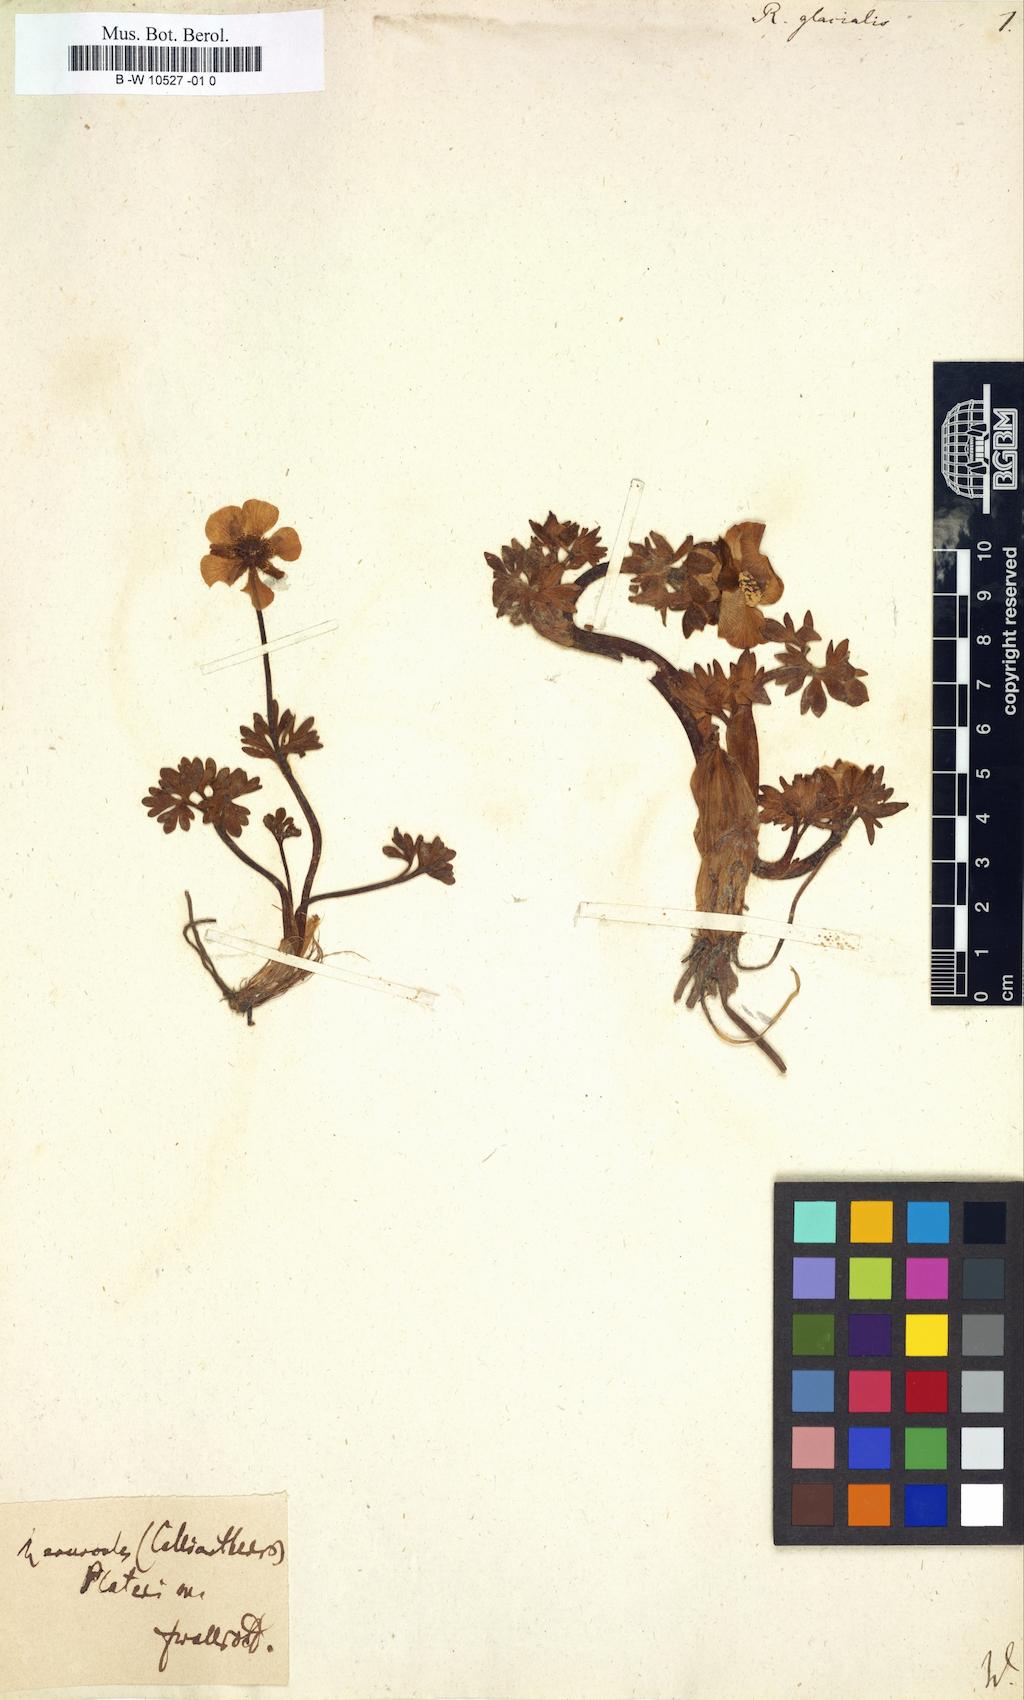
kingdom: Plantae
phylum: Tracheophyta
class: Magnoliopsida
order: Ranunculales
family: Ranunculaceae
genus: Ranunculus
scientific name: Ranunculus glacialis
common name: Glacier buttercup
